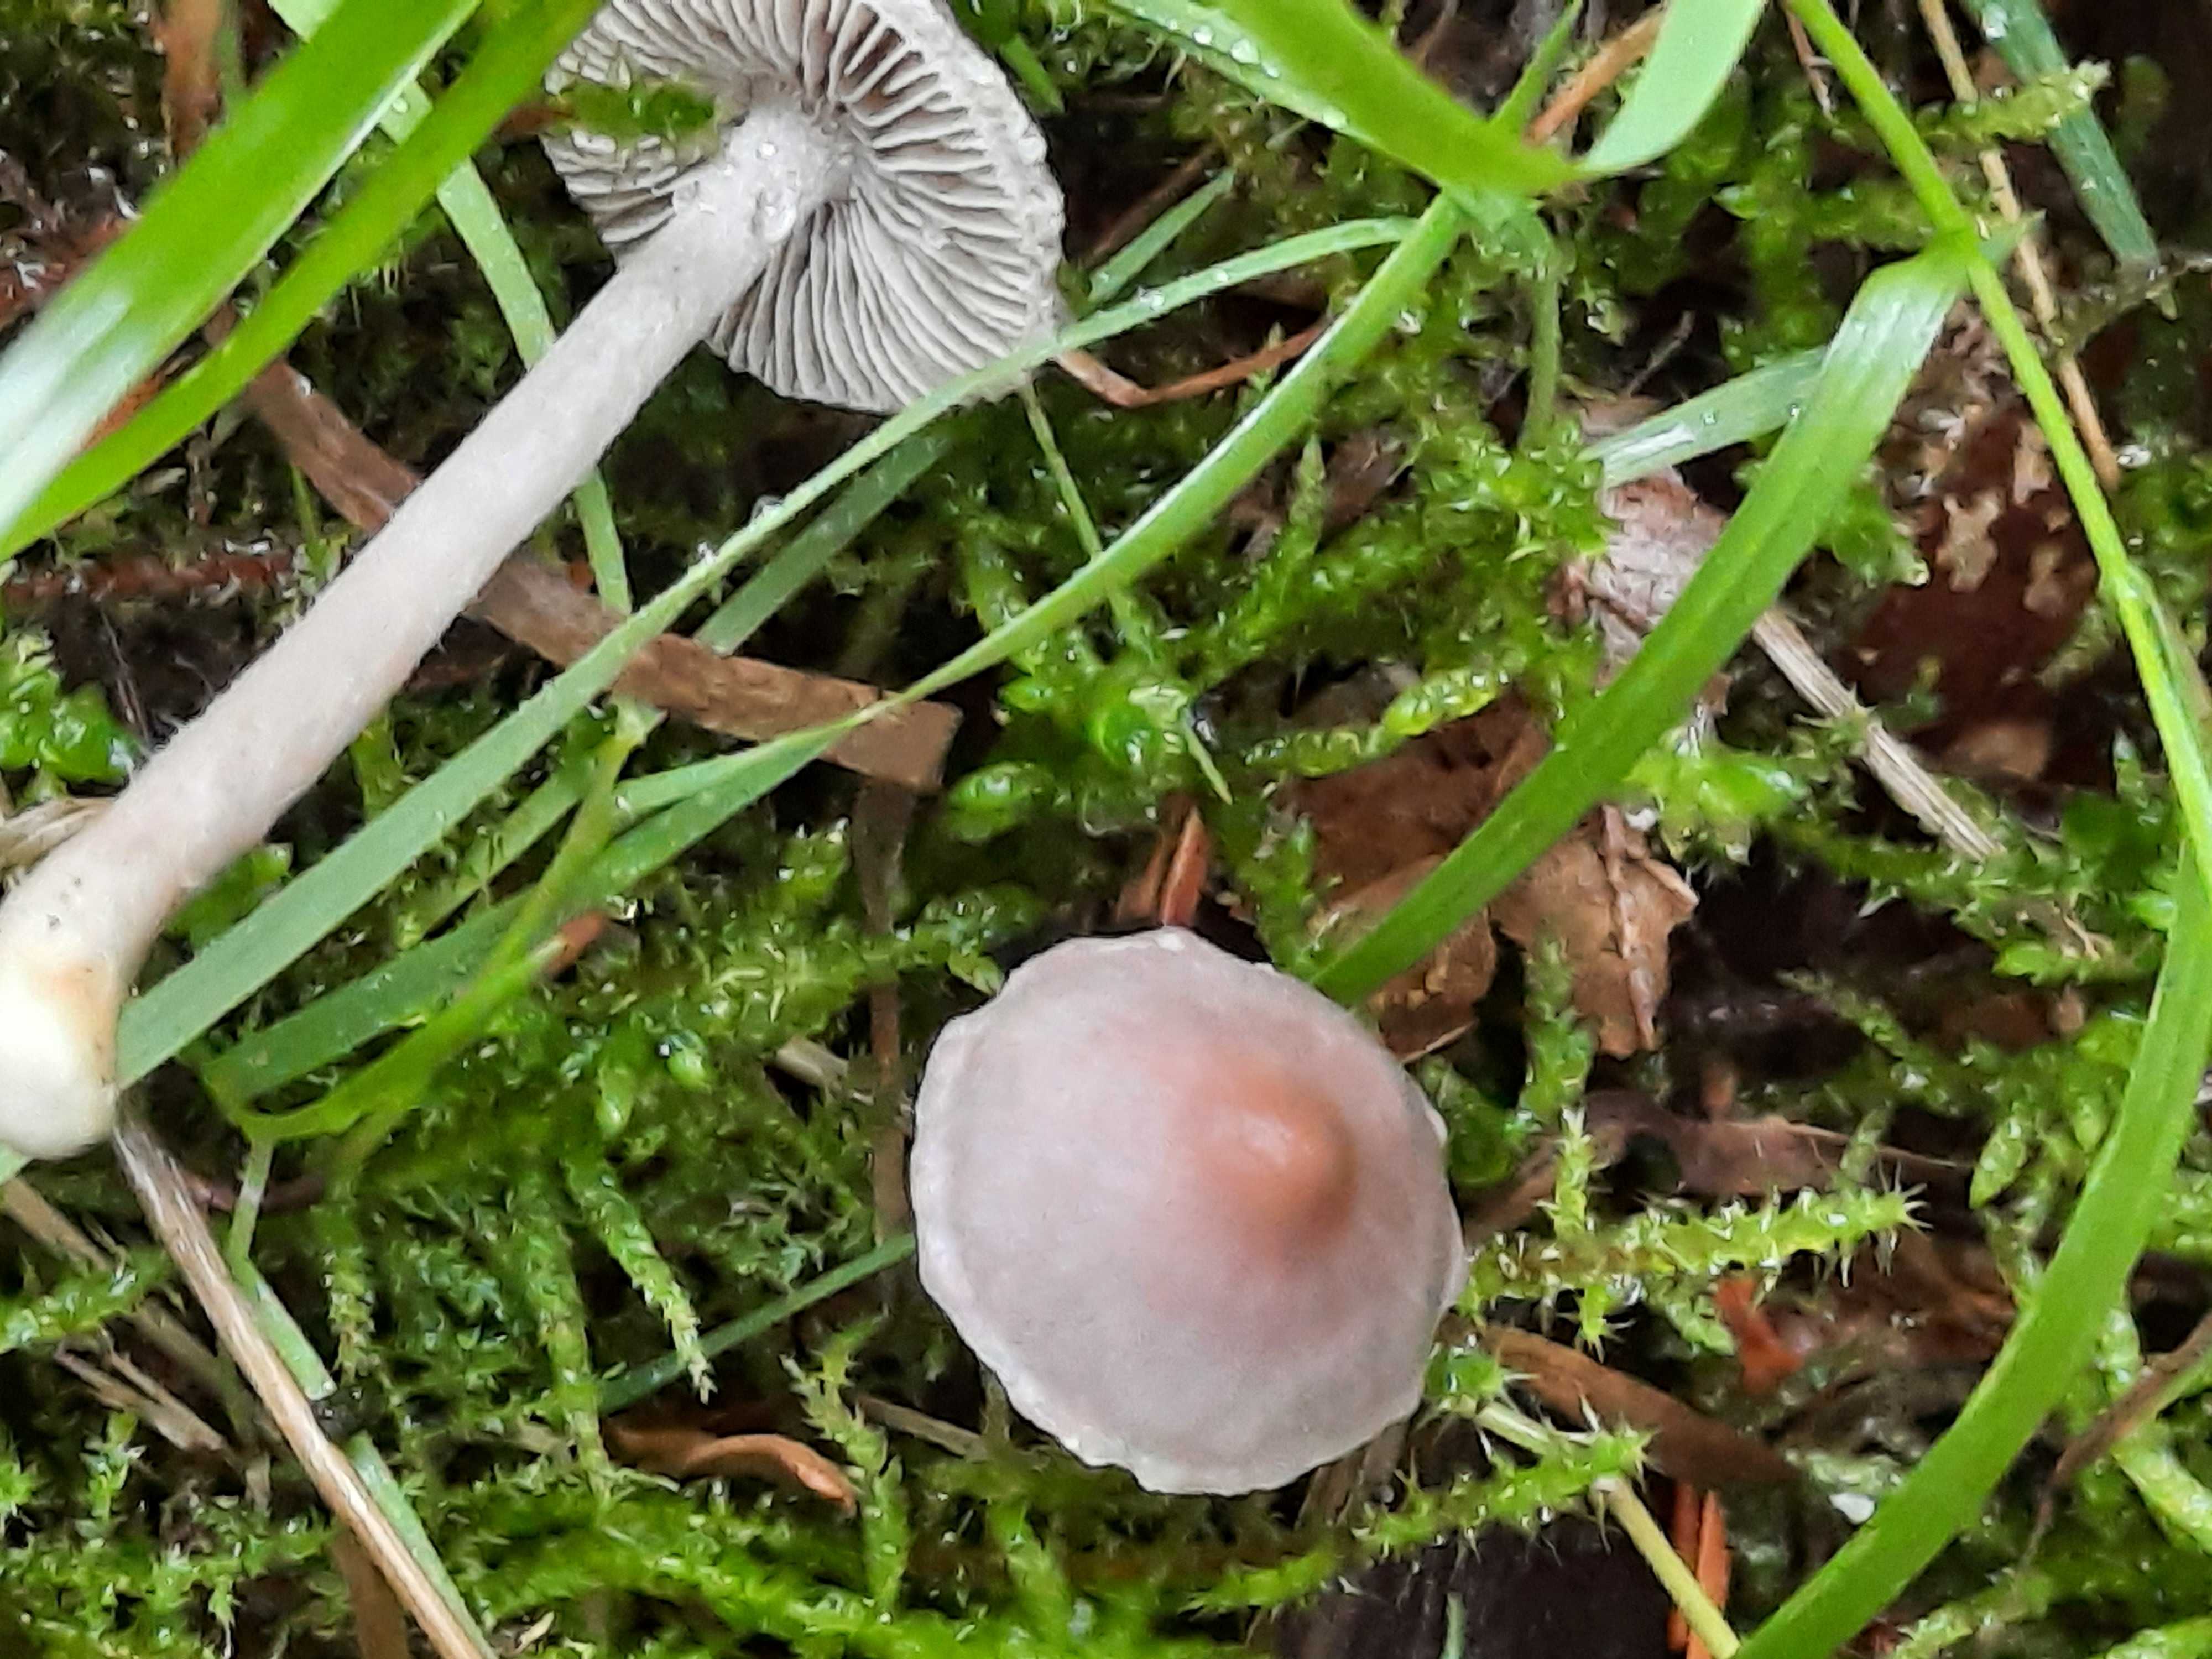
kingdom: Fungi
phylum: Basidiomycota
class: Agaricomycetes
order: Agaricales
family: Inocybaceae
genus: Inocybe
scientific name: Inocybe geophylla
